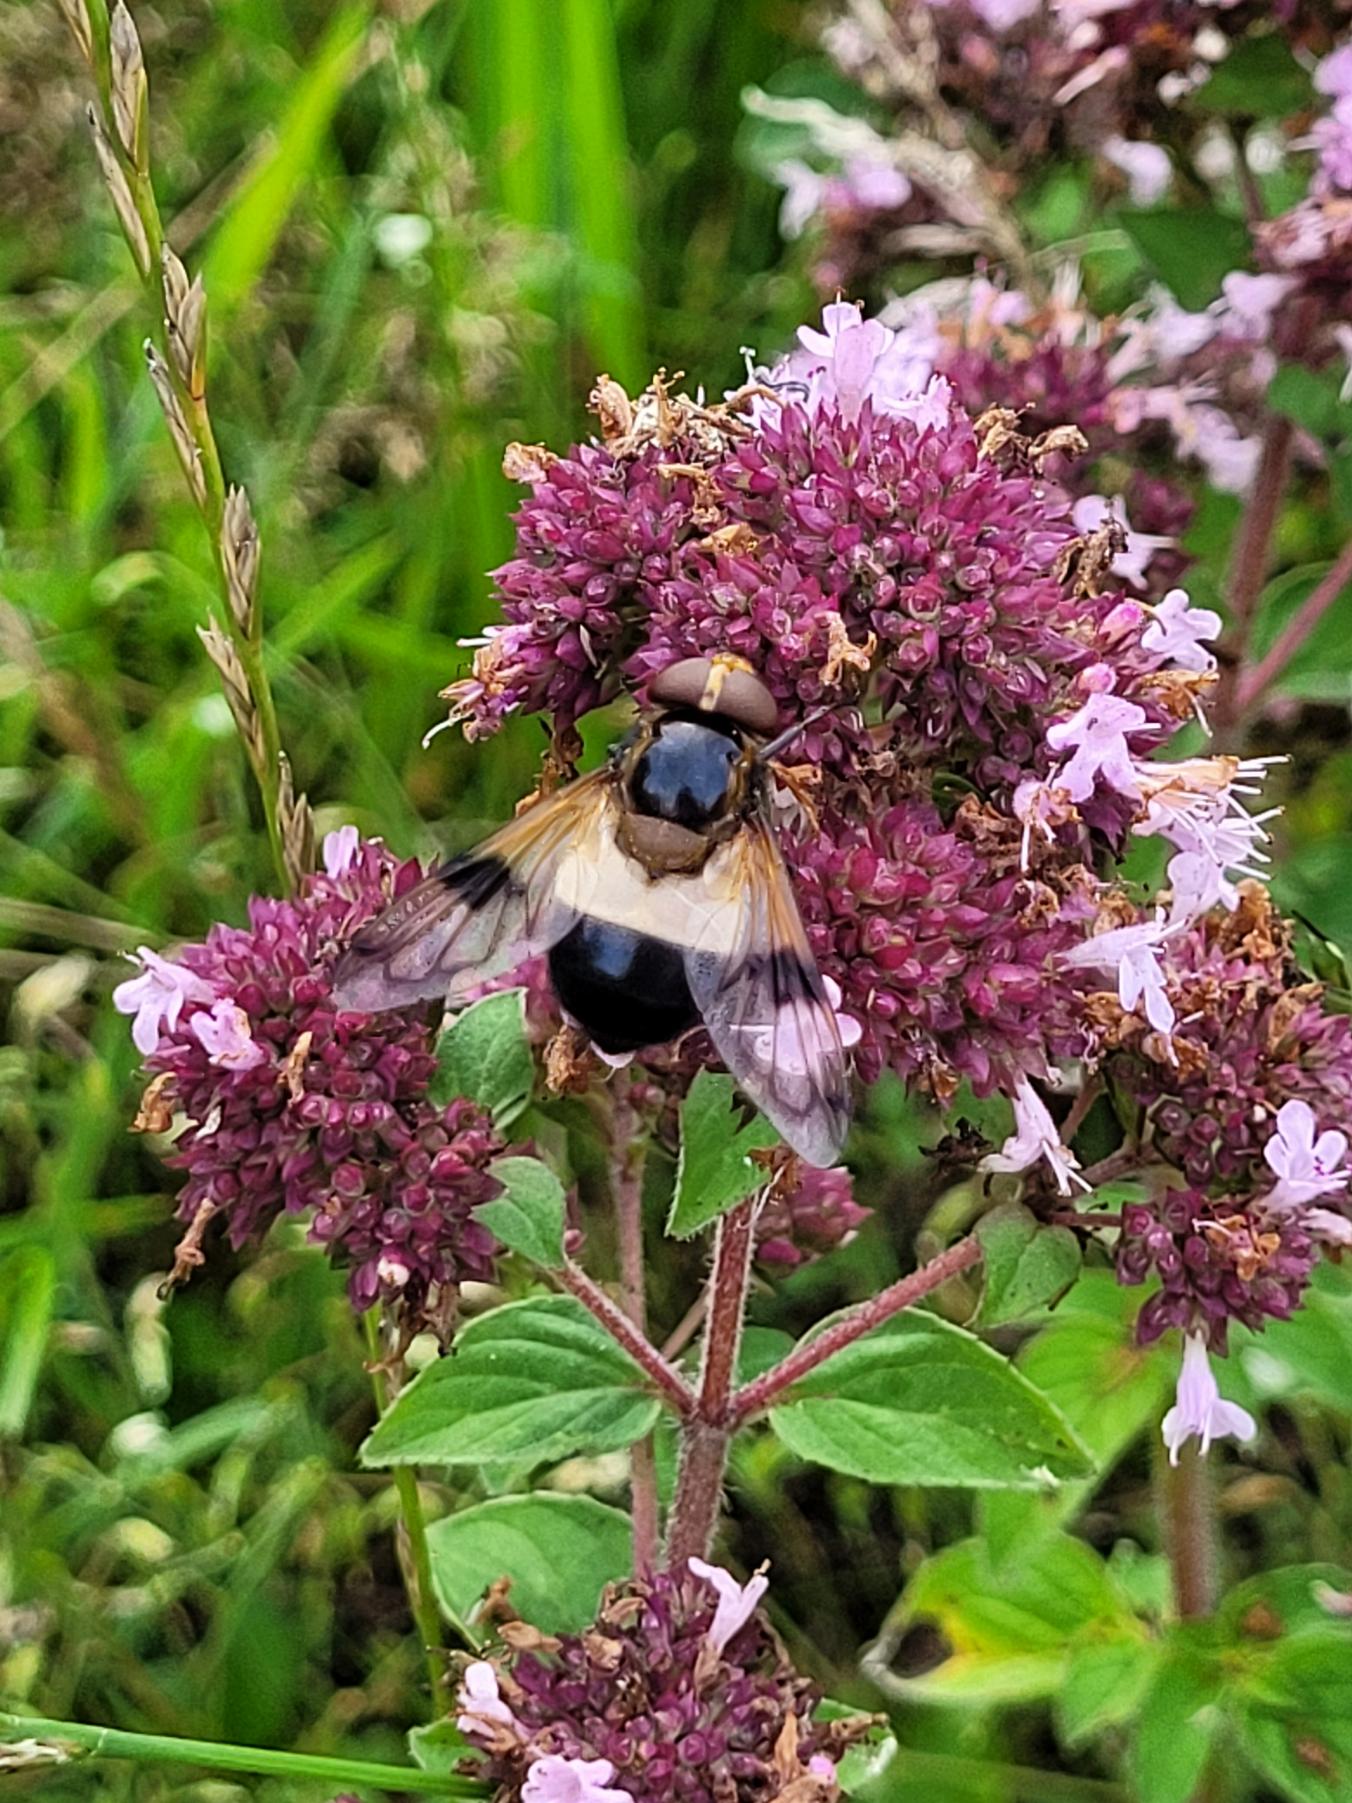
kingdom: Animalia
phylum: Arthropoda
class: Insecta
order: Diptera
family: Syrphidae
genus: Volucella
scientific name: Volucella pellucens
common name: Hvidbåndet humlesvirreflue
